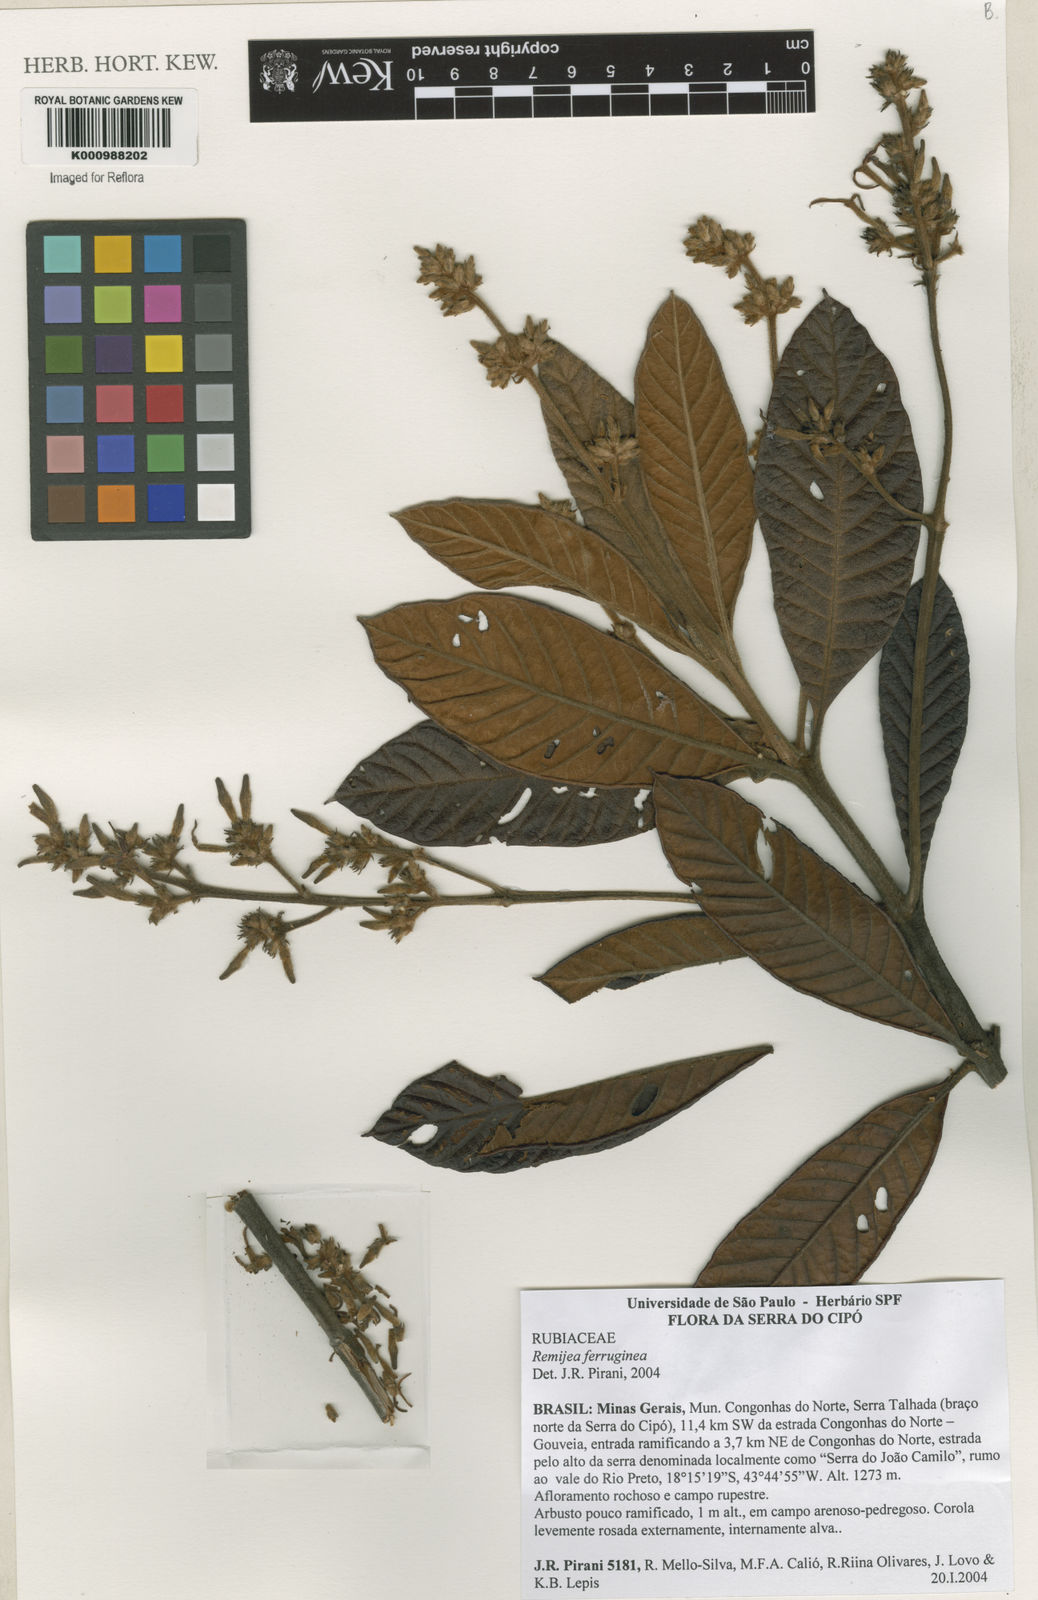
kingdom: Plantae
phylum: Tracheophyta
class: Magnoliopsida
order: Gentianales
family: Rubiaceae
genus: Remijia
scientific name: Remijia ferruginea
